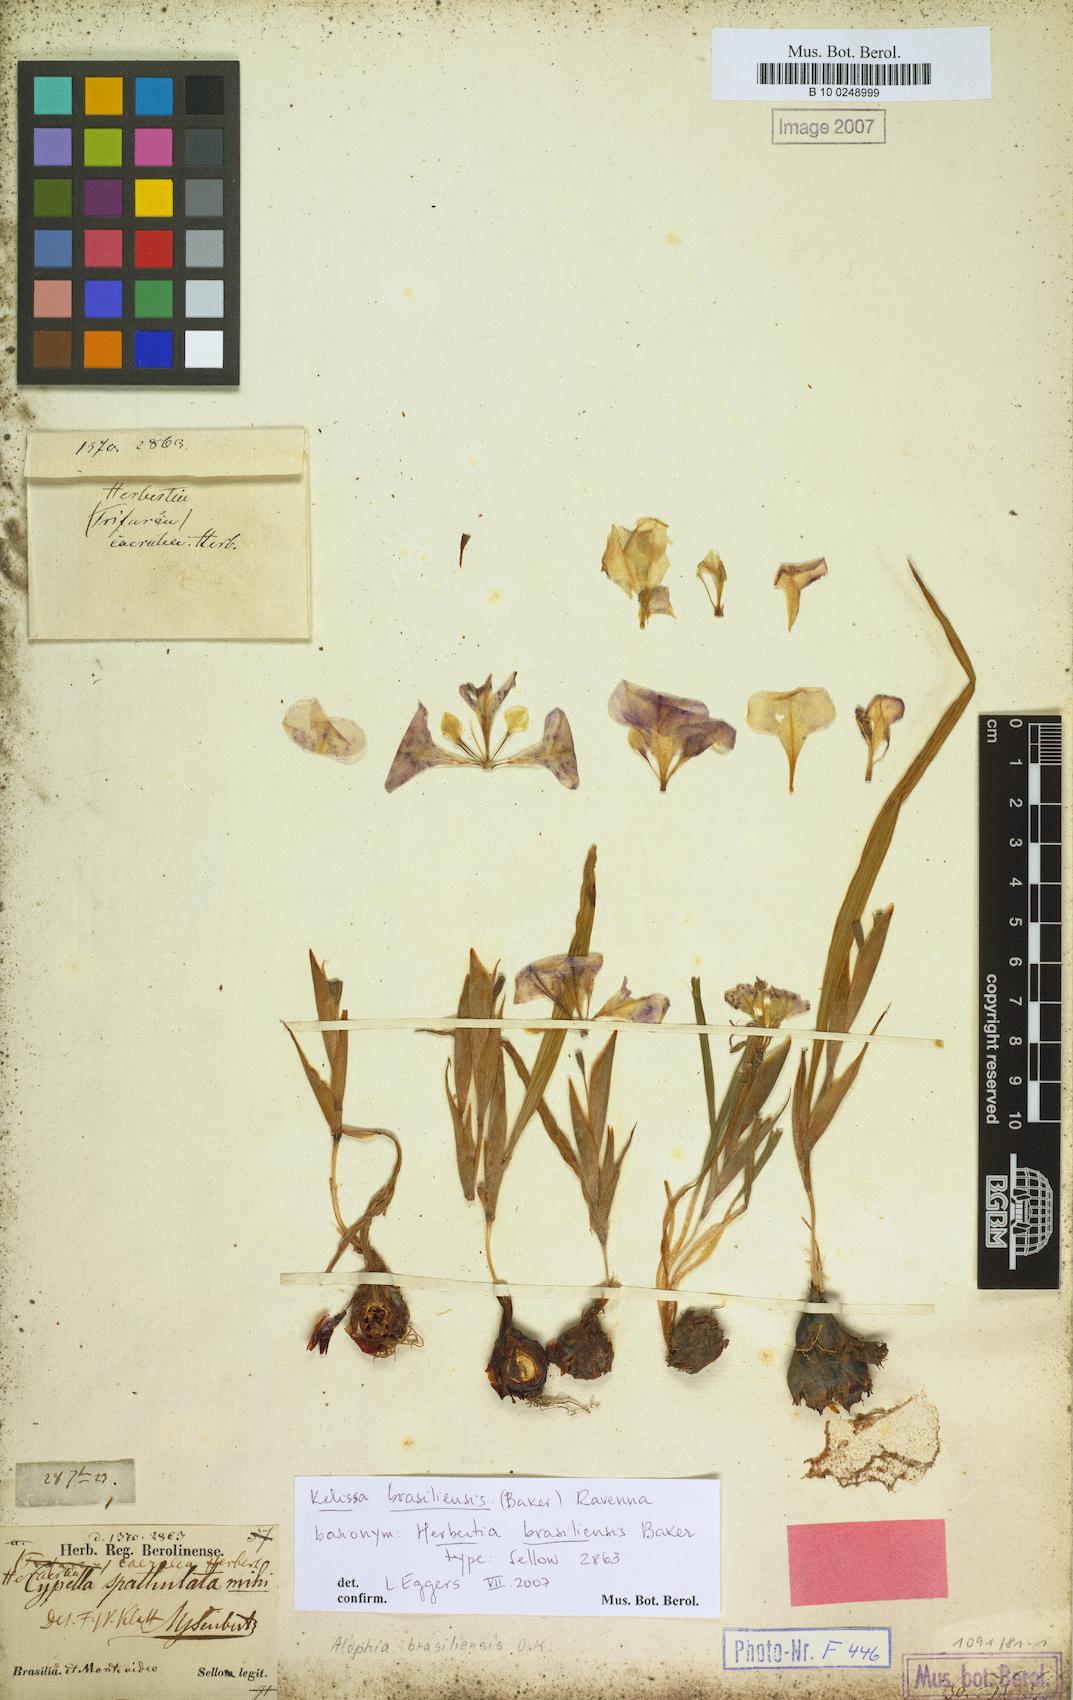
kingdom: Plantae
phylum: Tracheophyta
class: Liliopsida
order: Asparagales
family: Iridaceae
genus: Cypella
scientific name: Cypella brasiliensis
